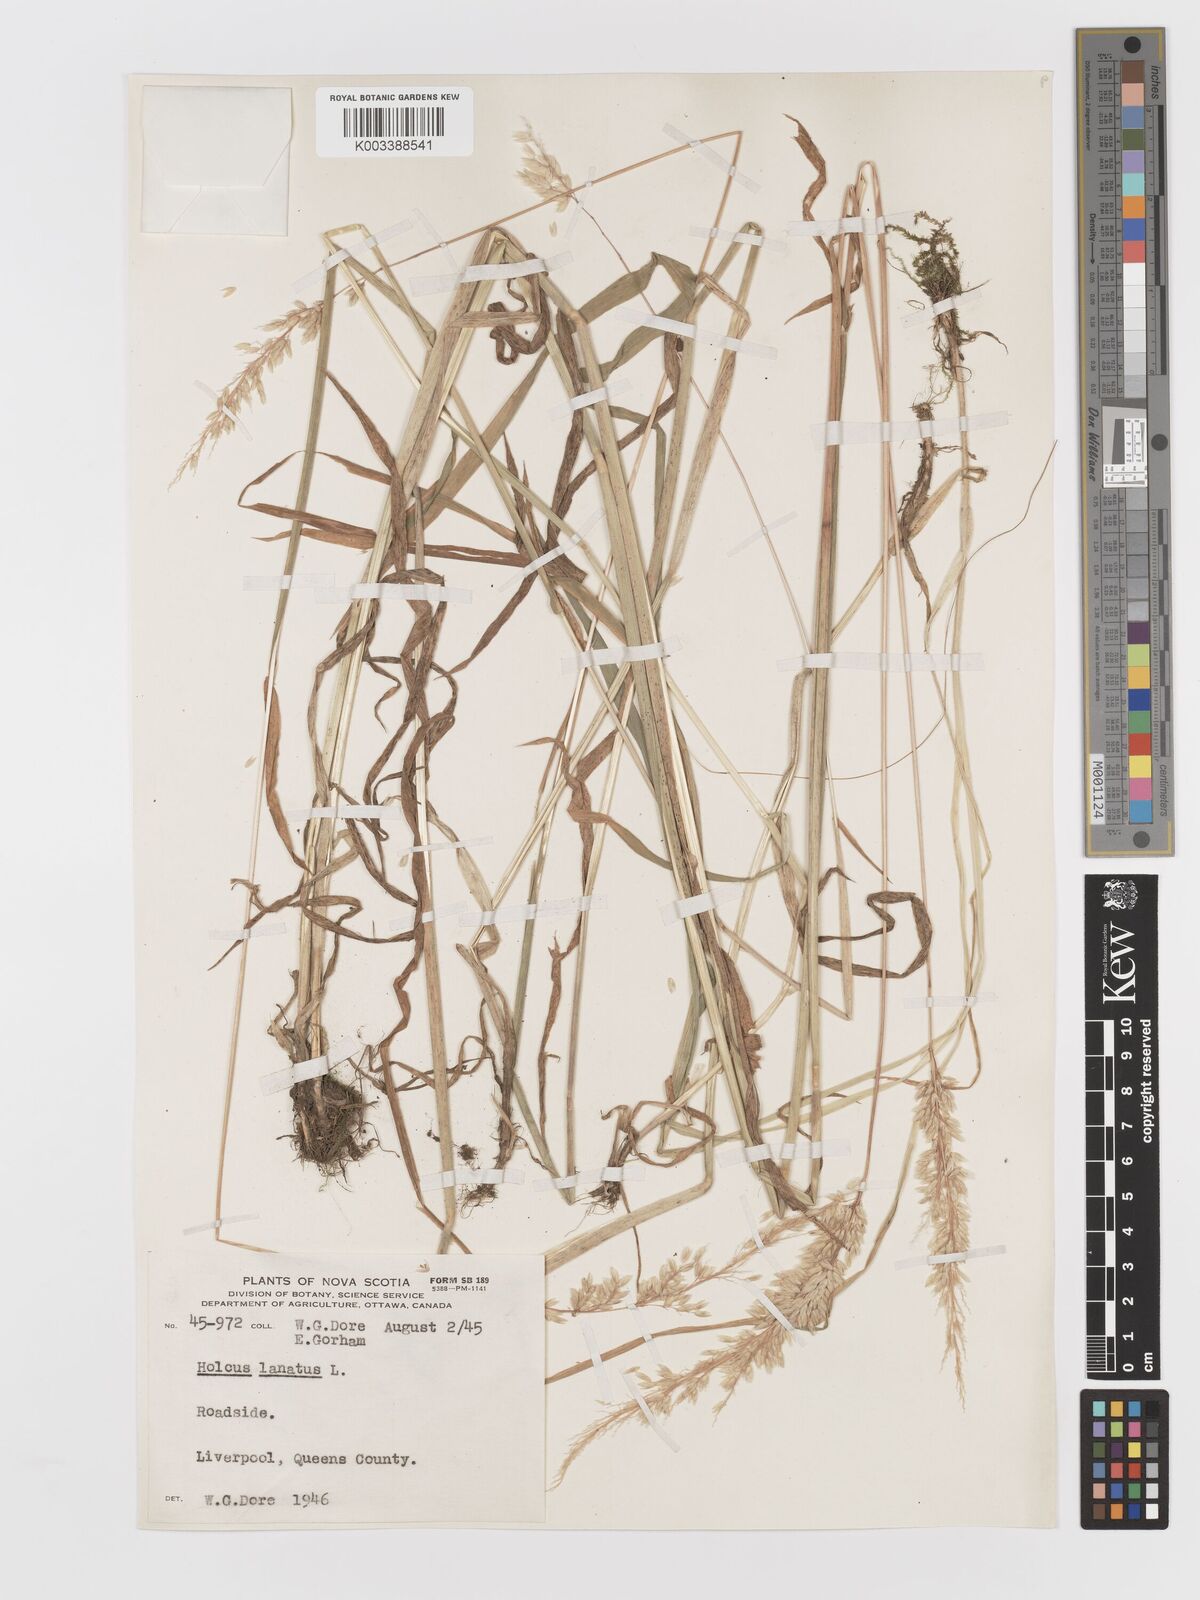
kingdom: Plantae
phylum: Tracheophyta
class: Liliopsida
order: Poales
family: Poaceae
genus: Holcus
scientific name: Holcus lanatus
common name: Yorkshire-fog
